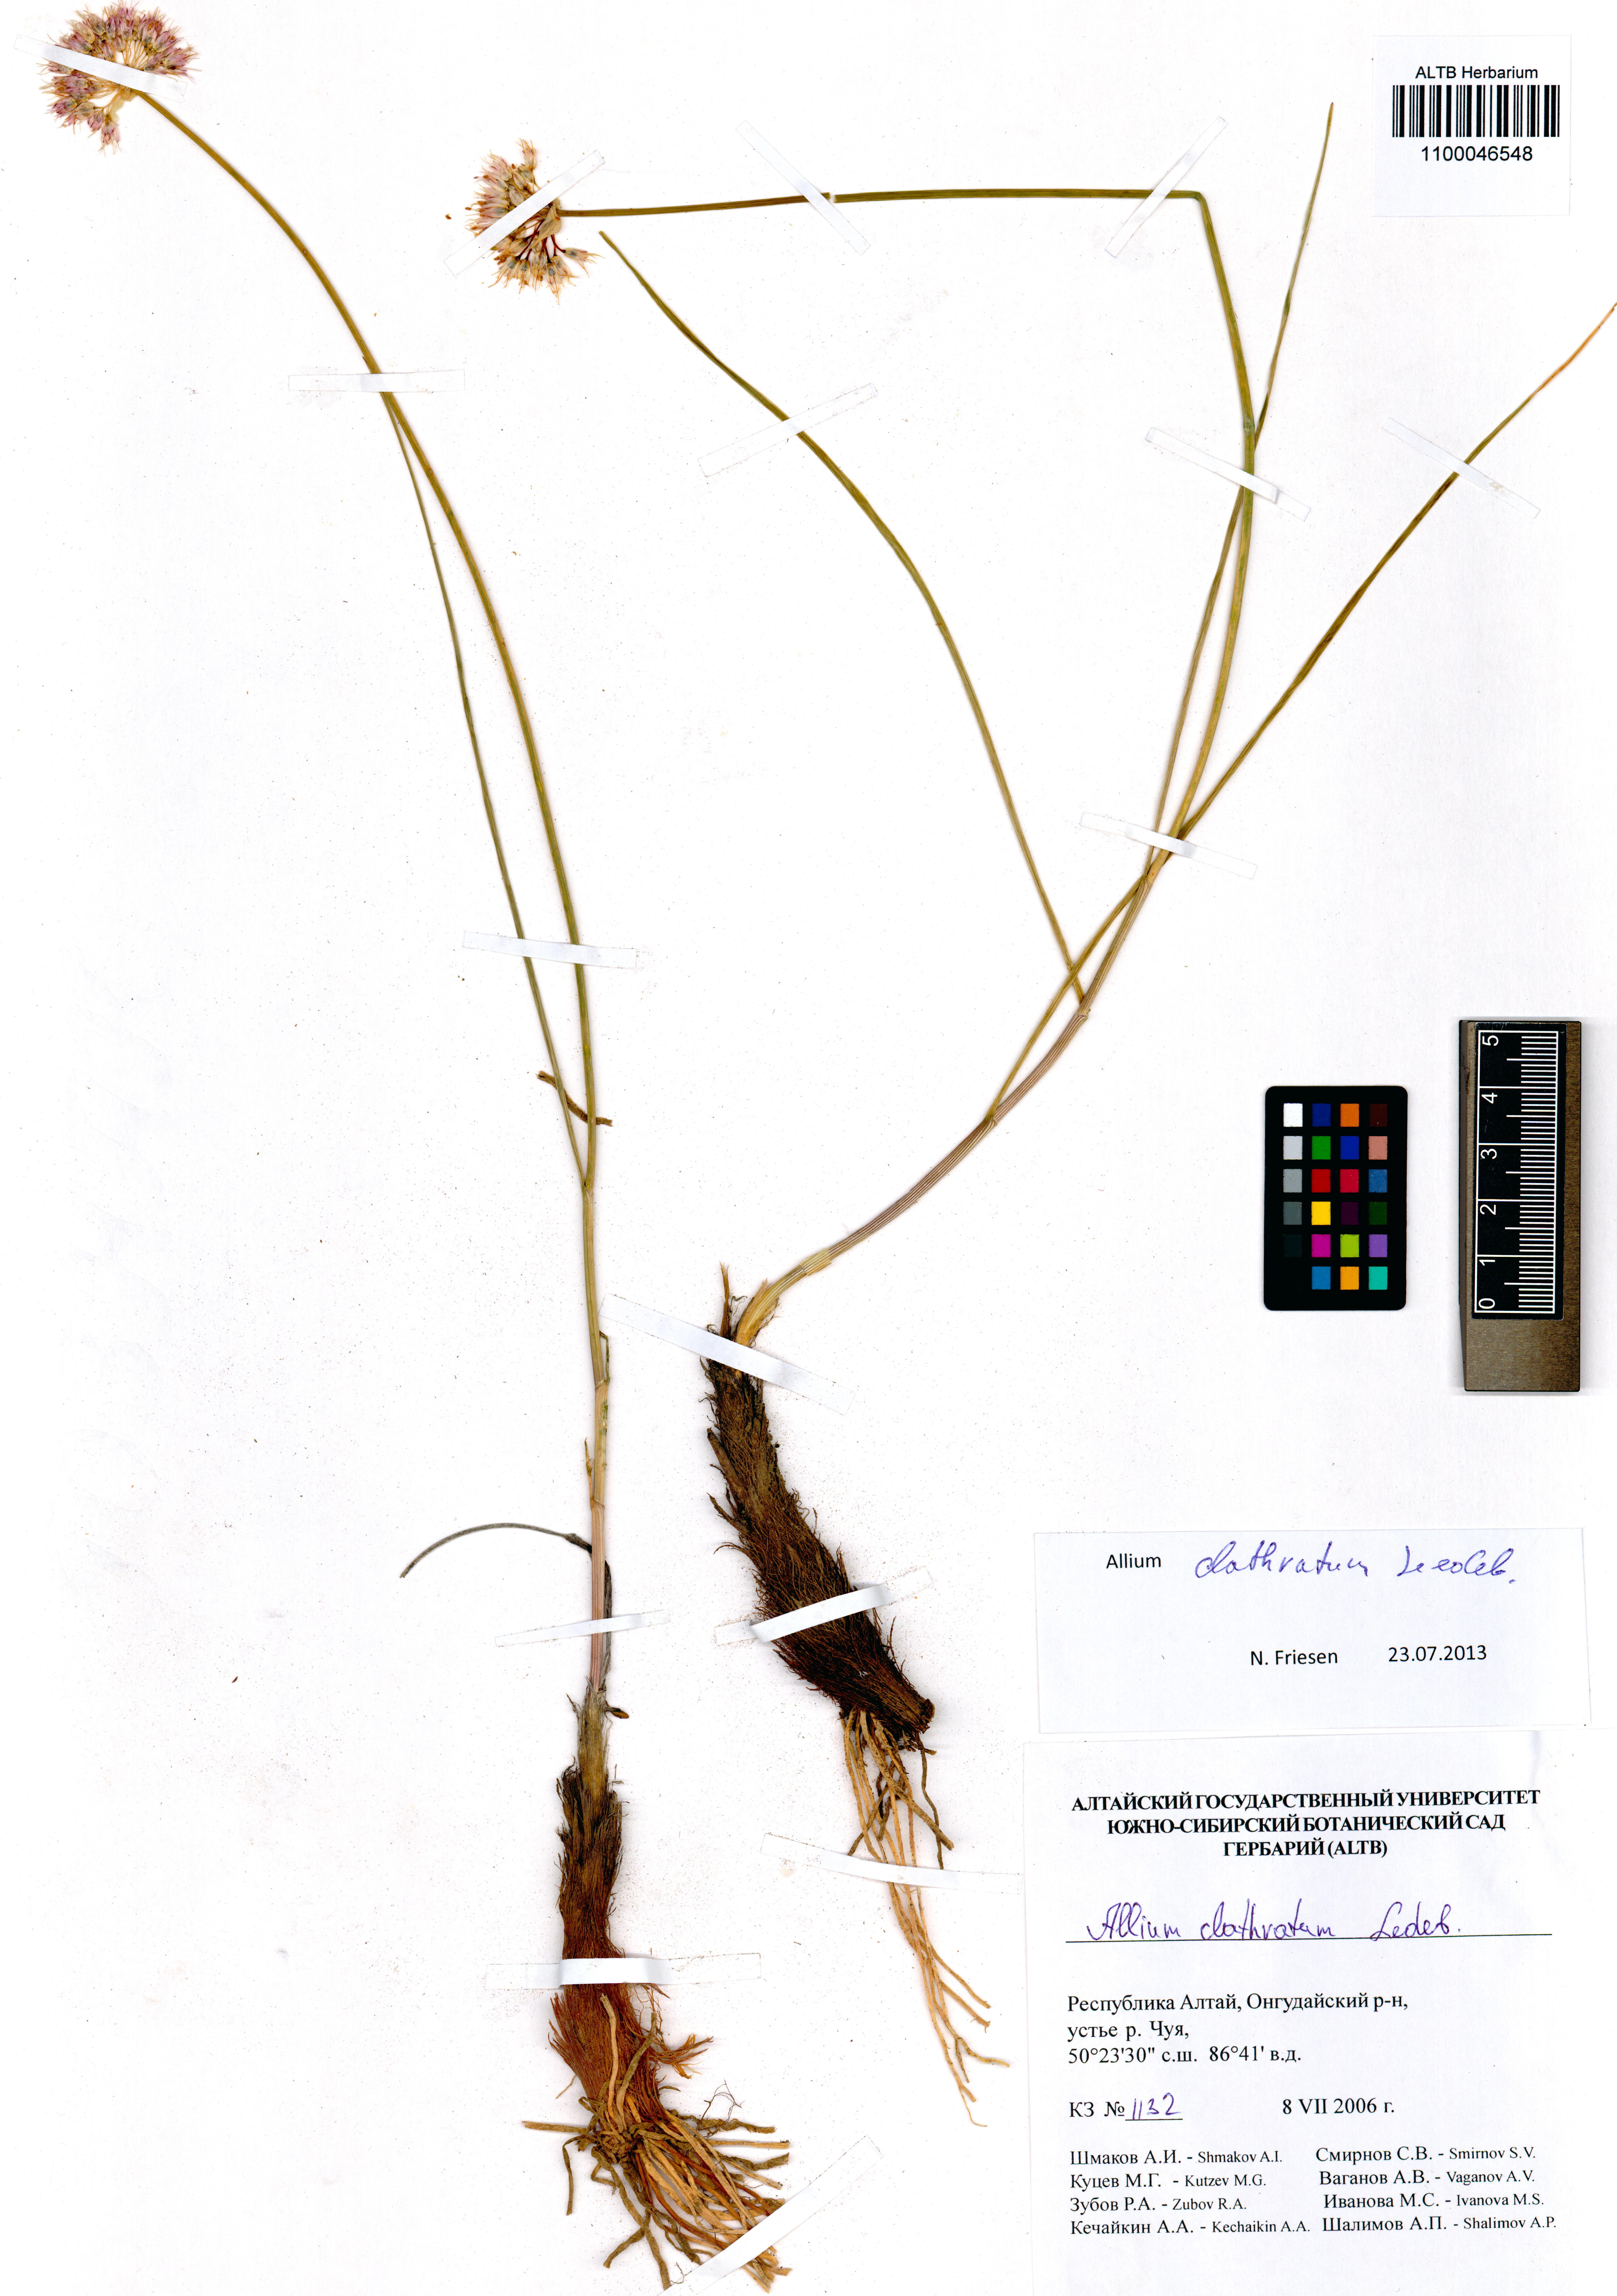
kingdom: Plantae
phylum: Tracheophyta
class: Liliopsida
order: Asparagales
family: Amaryllidaceae
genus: Allium
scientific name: Allium clathratum
